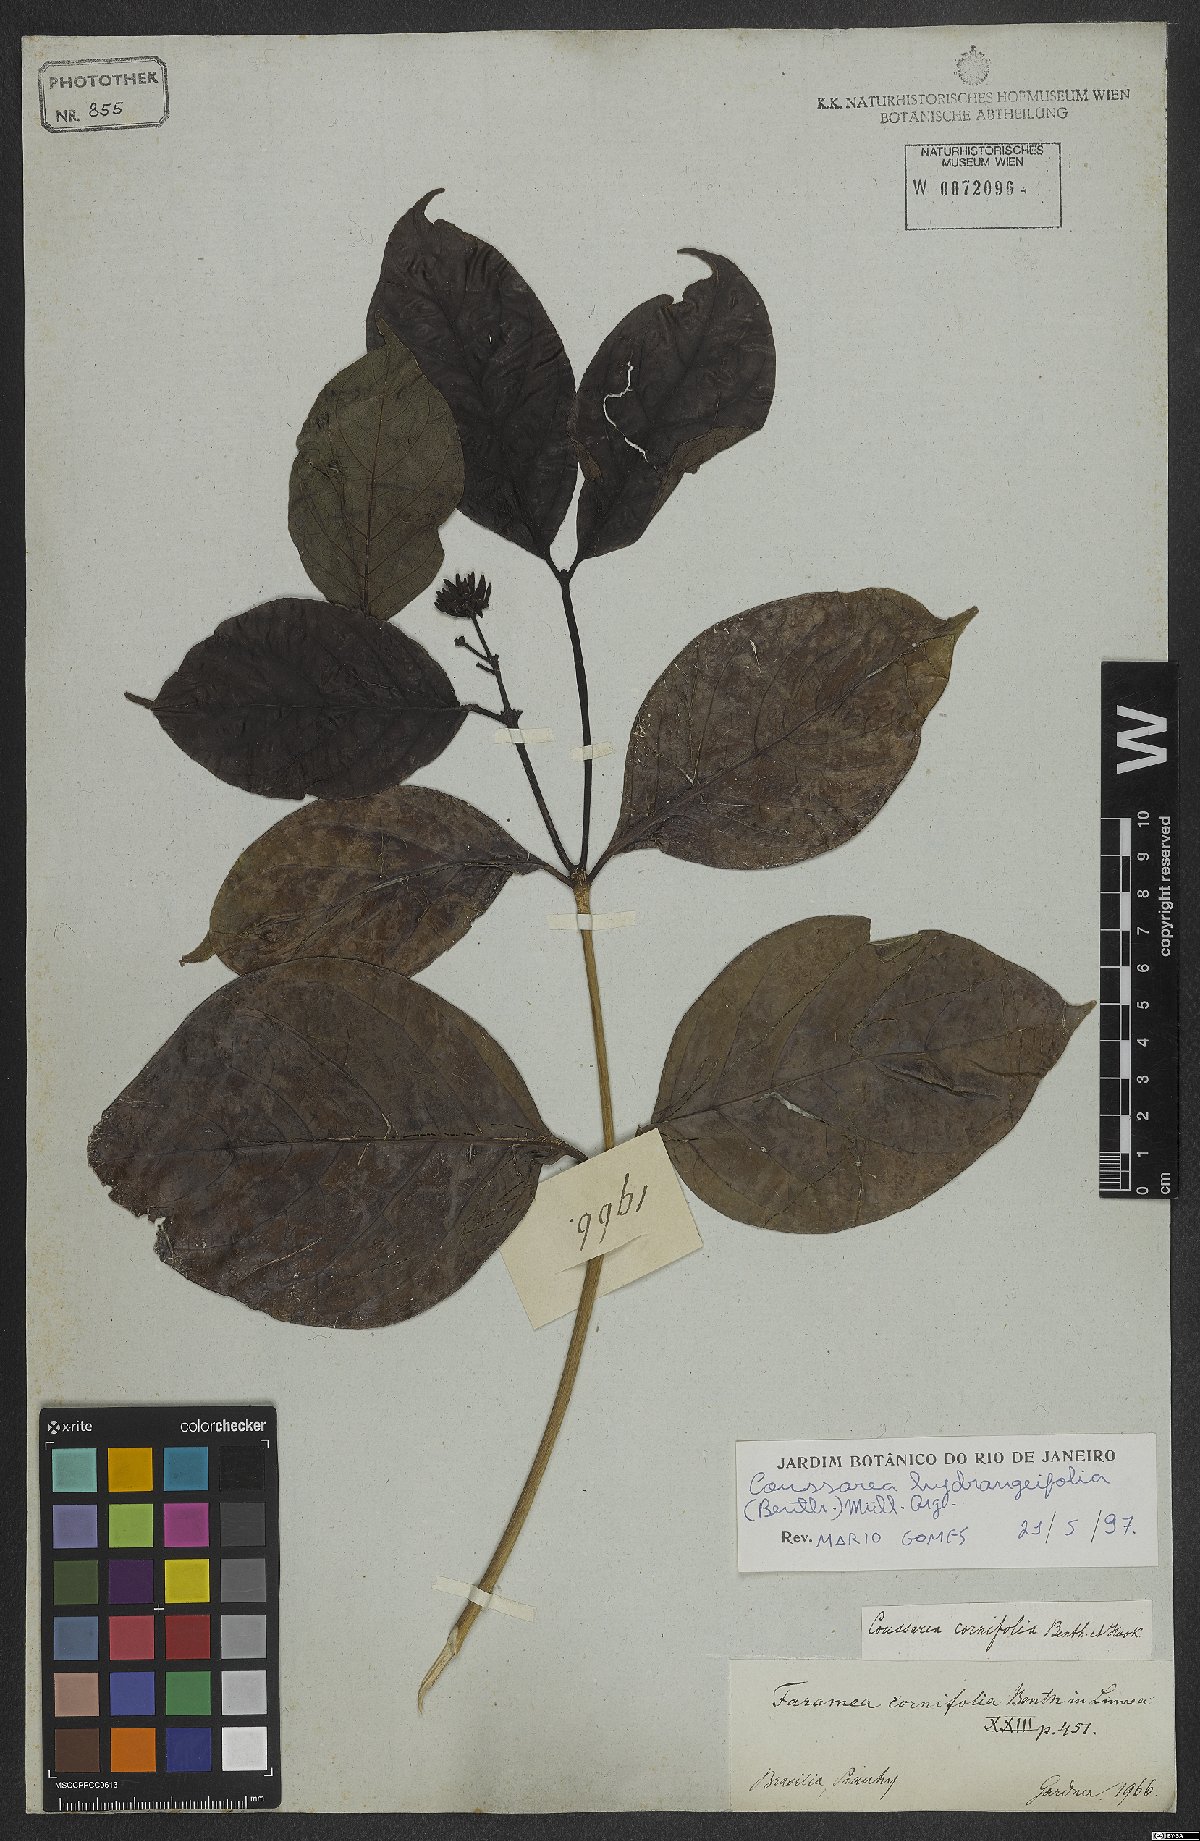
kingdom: Plantae
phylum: Tracheophyta
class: Magnoliopsida
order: Gentianales
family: Rubiaceae
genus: Coussarea
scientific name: Coussarea hydrangeifolia
